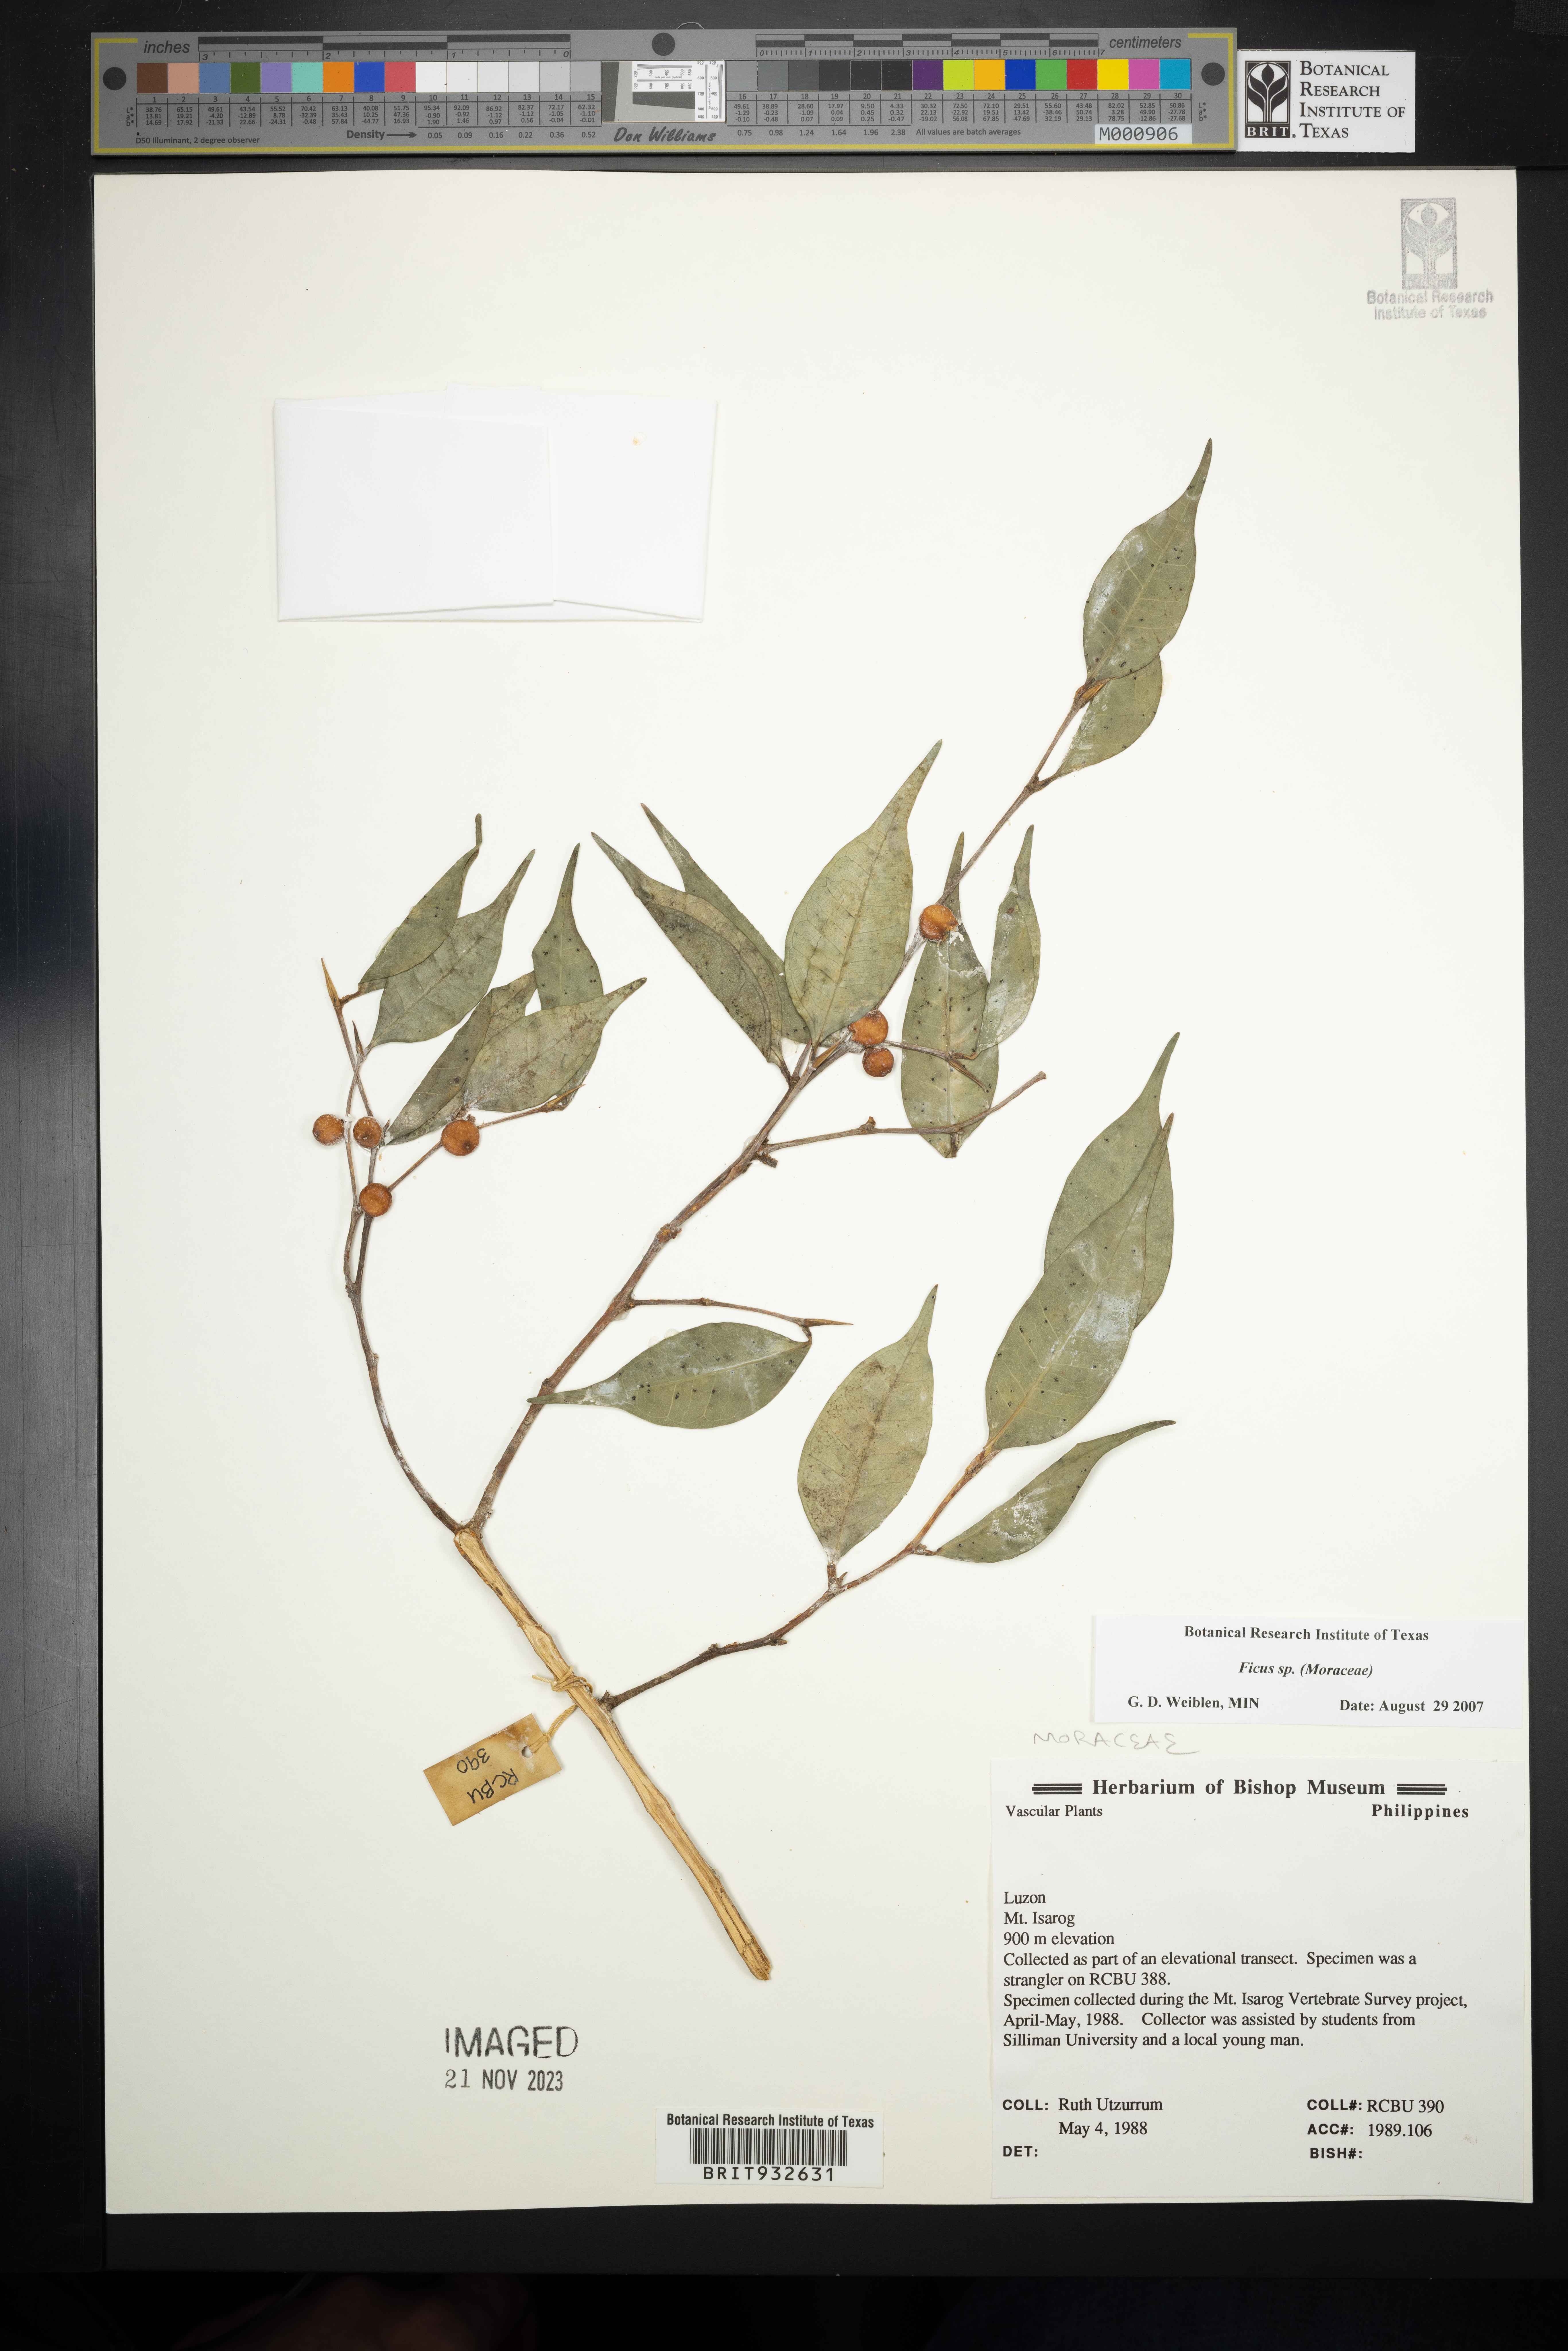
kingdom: Plantae
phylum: Tracheophyta
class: Magnoliopsida
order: Rosales
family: Moraceae
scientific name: Moraceae
